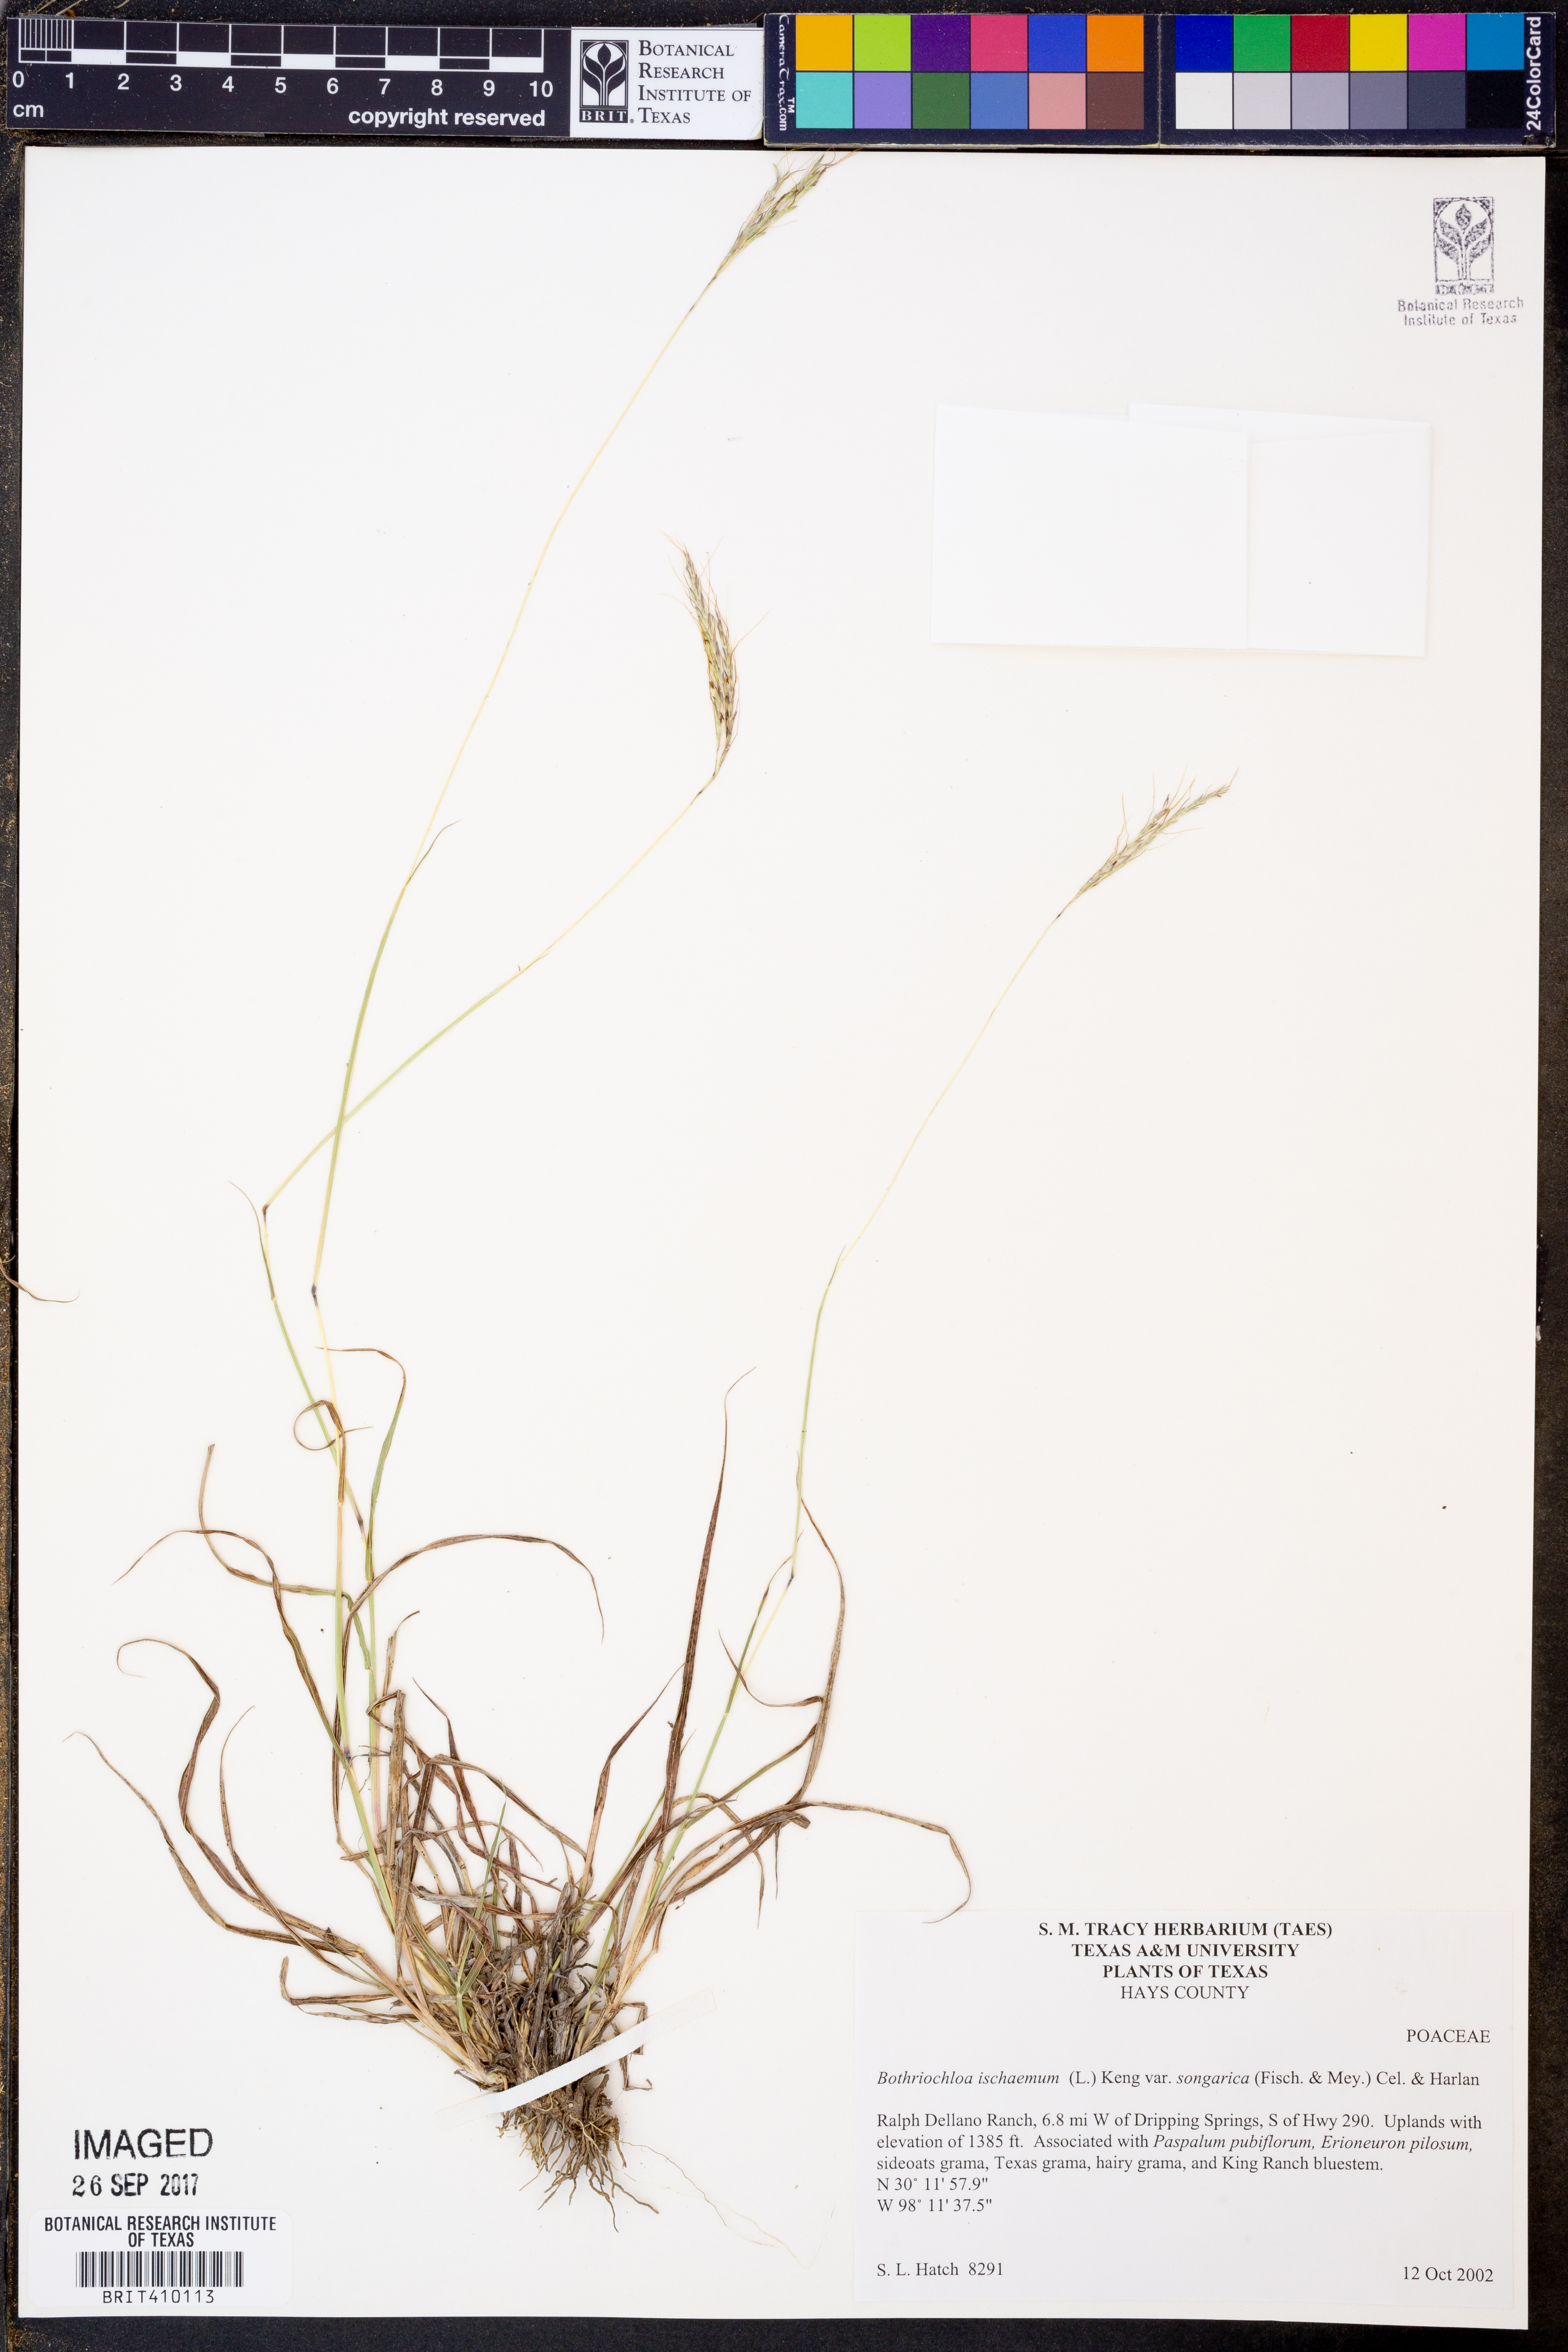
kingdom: Plantae
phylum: Tracheophyta
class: Liliopsida
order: Poales
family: Poaceae
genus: Bothriochloa
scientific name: Bothriochloa ischaemum
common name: Yellow bluestem
